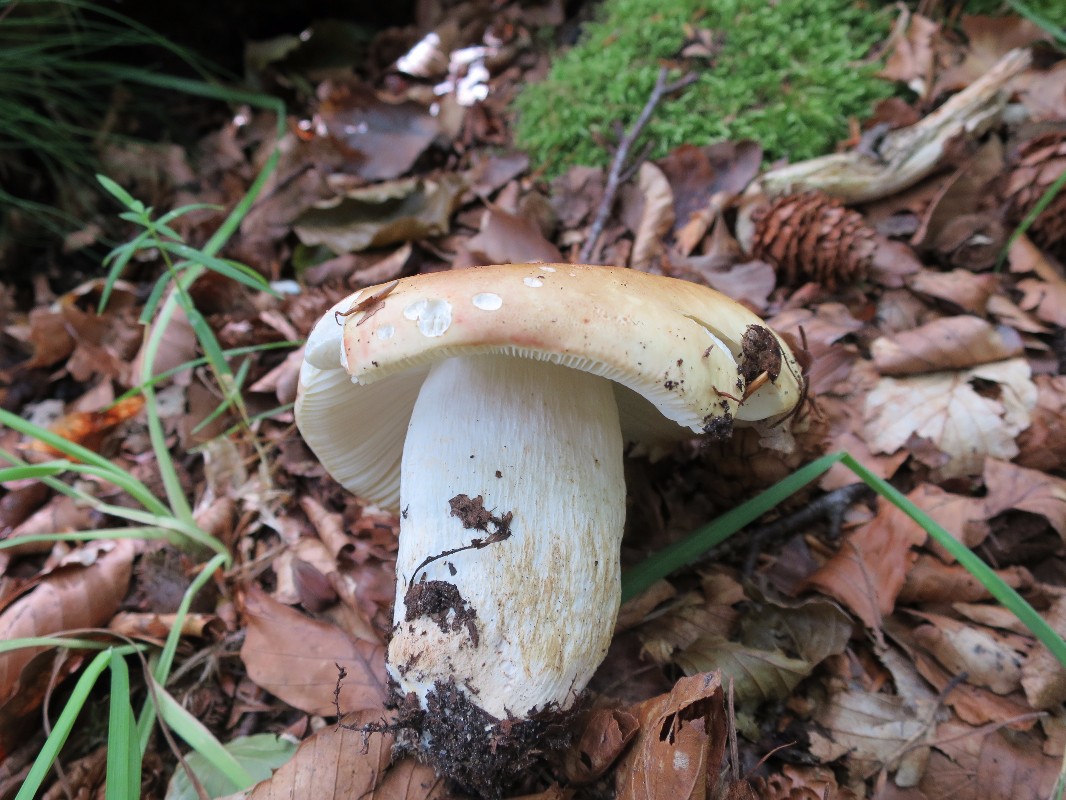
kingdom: Fungi
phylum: Basidiomycota
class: Agaricomycetes
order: Russulales
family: Russulaceae
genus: Russula
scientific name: Russula faginea
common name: bøge-skørhat
